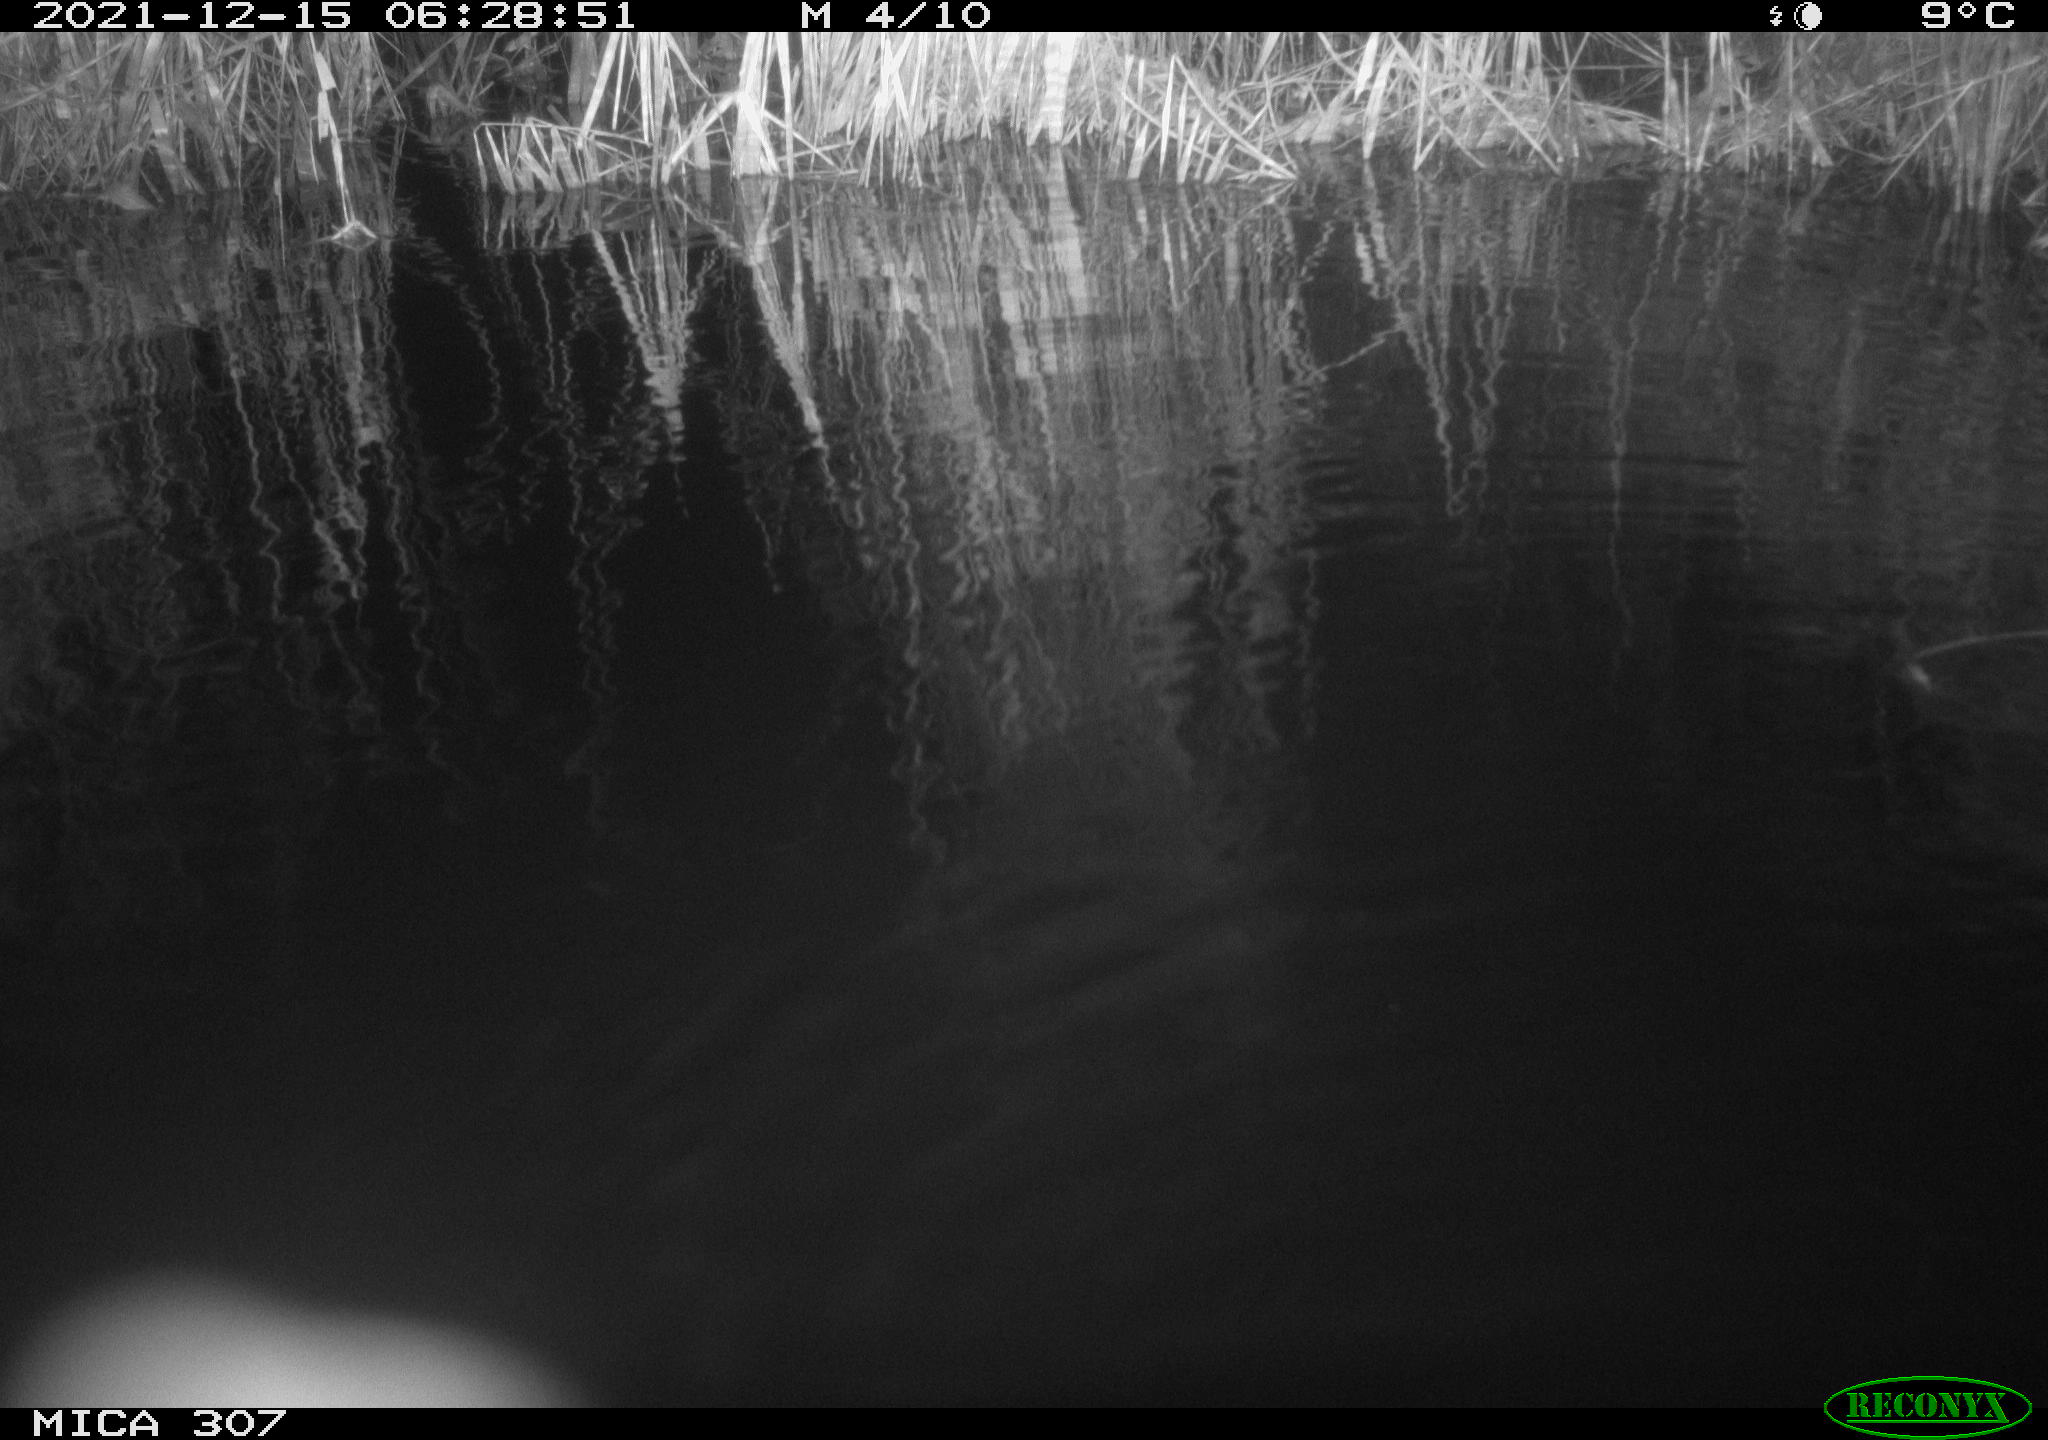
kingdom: Animalia
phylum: Chordata
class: Mammalia
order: Rodentia
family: Muridae
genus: Rattus
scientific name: Rattus norvegicus
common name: Brown rat
